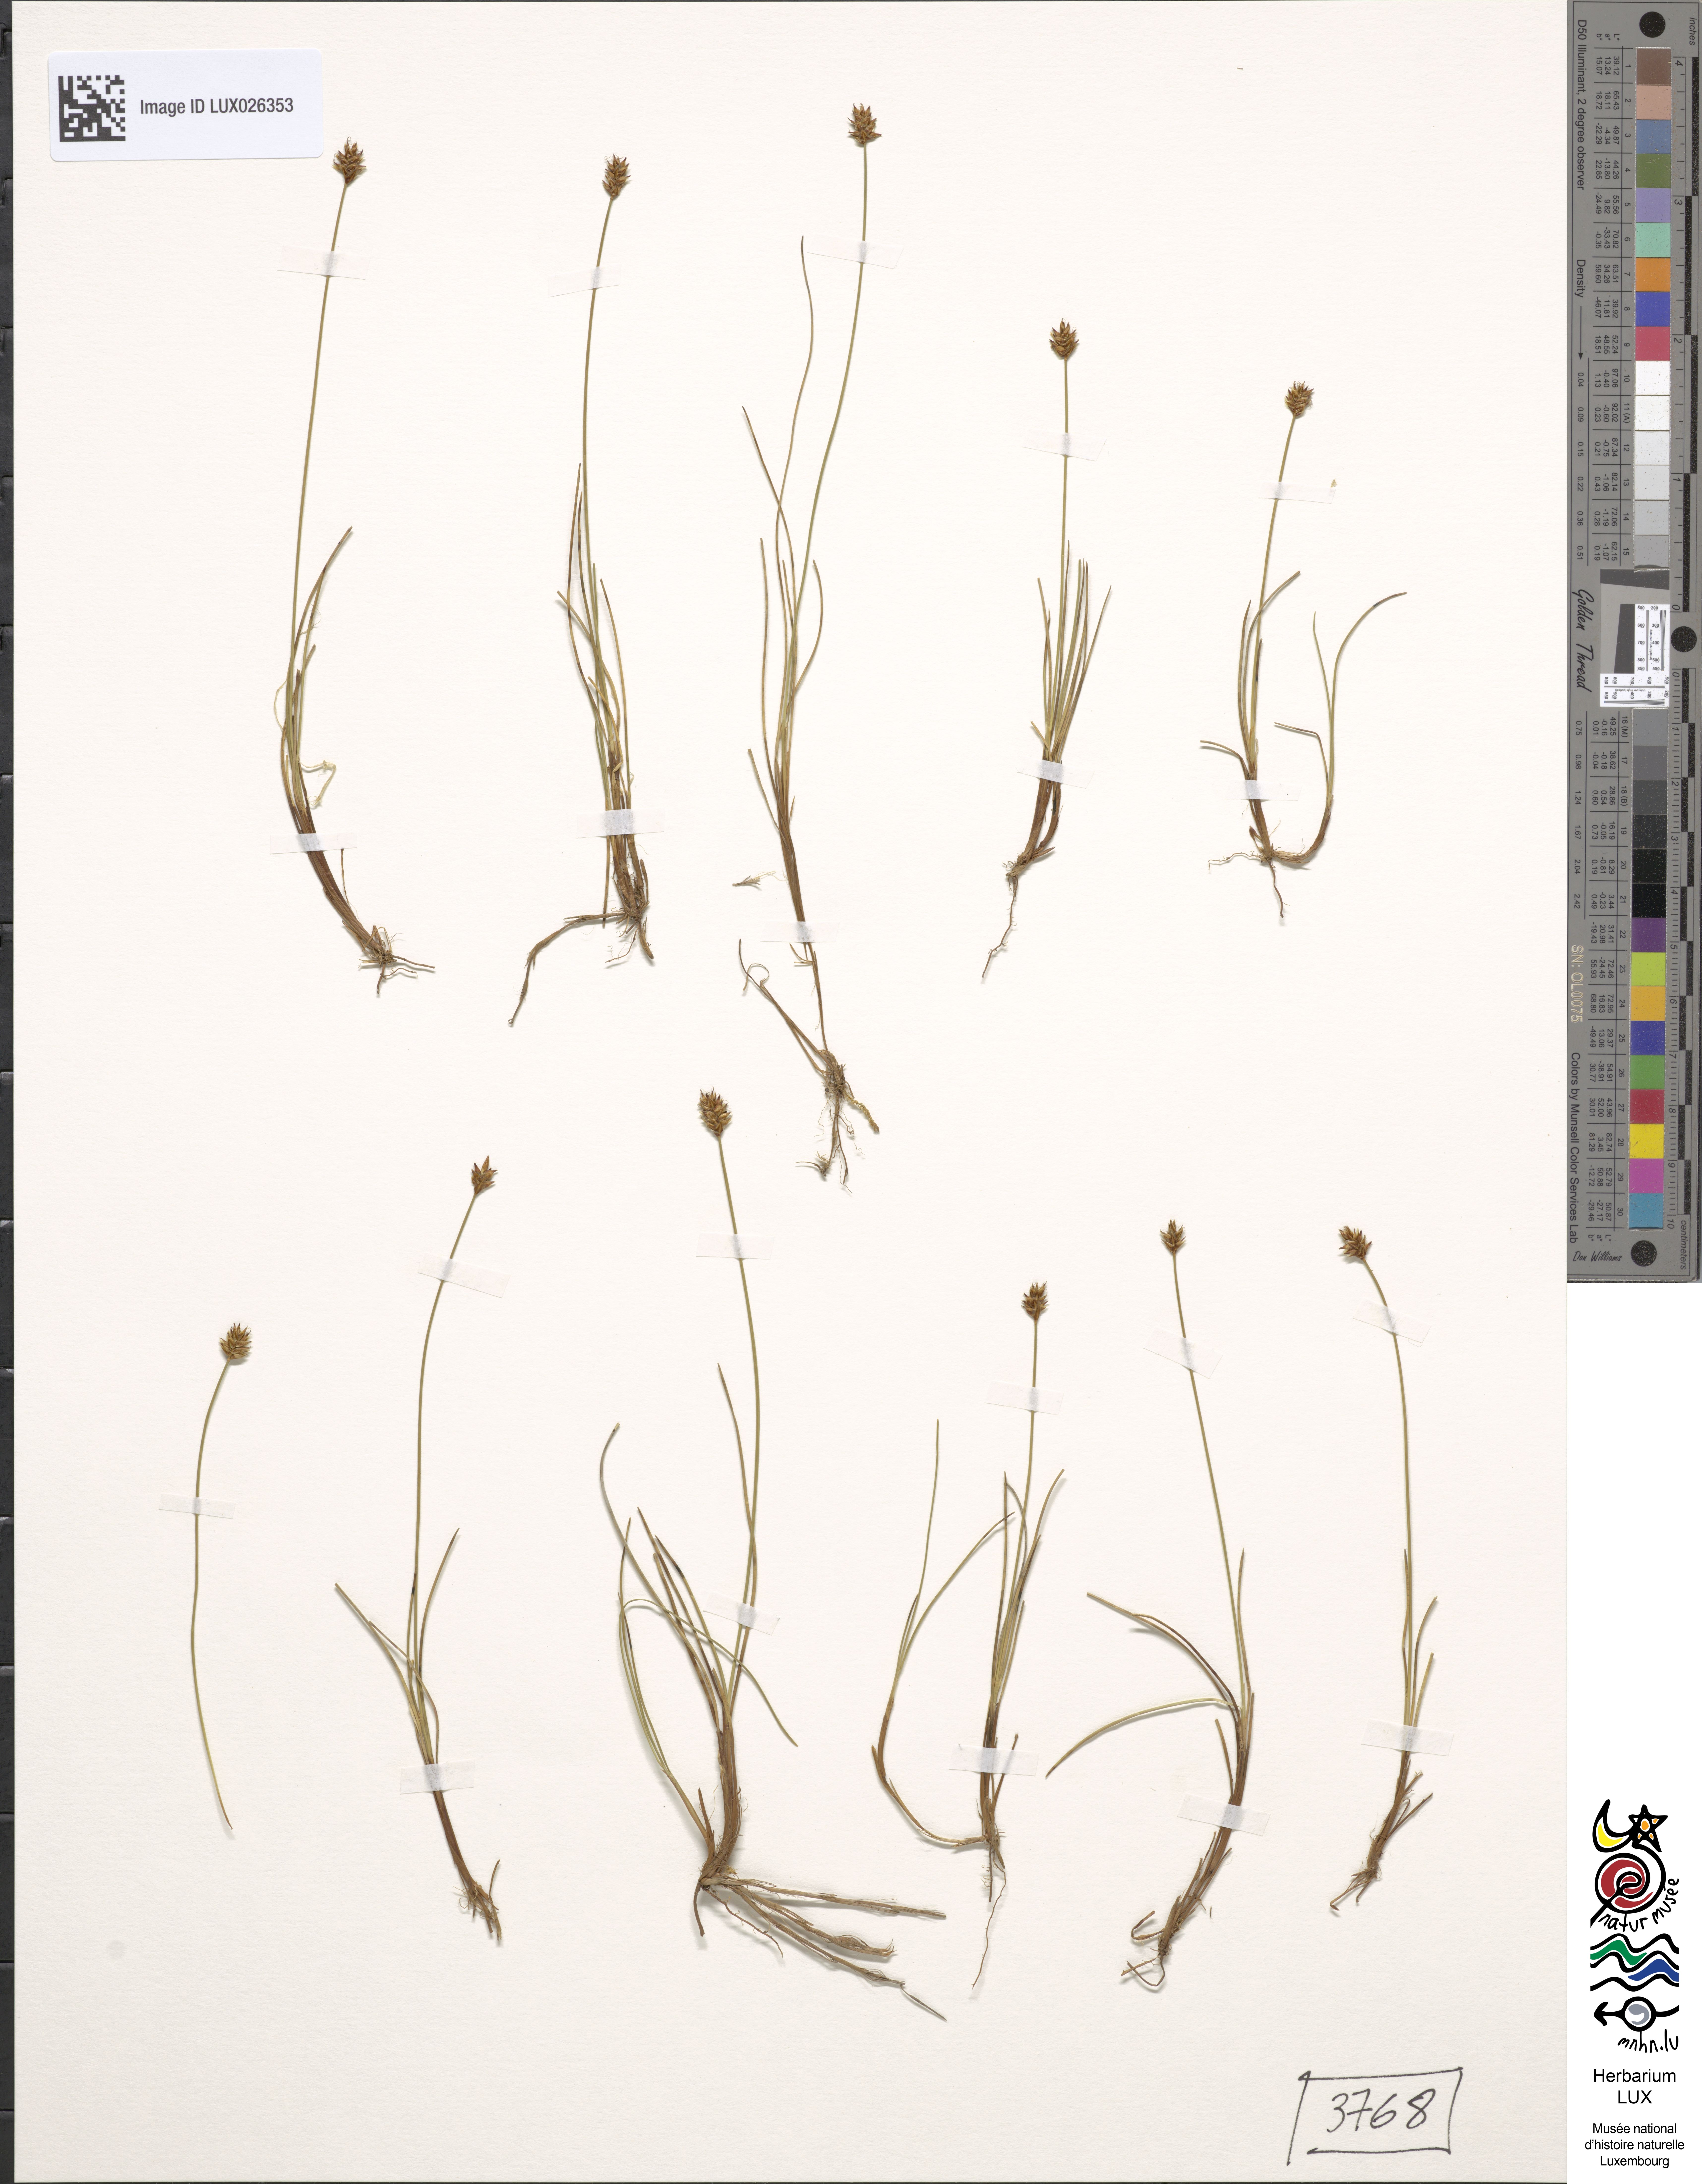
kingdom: Plantae
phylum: Tracheophyta
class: Liliopsida
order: Poales
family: Cyperaceae
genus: Carex
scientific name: Carex dioica
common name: Dioecious sedge
